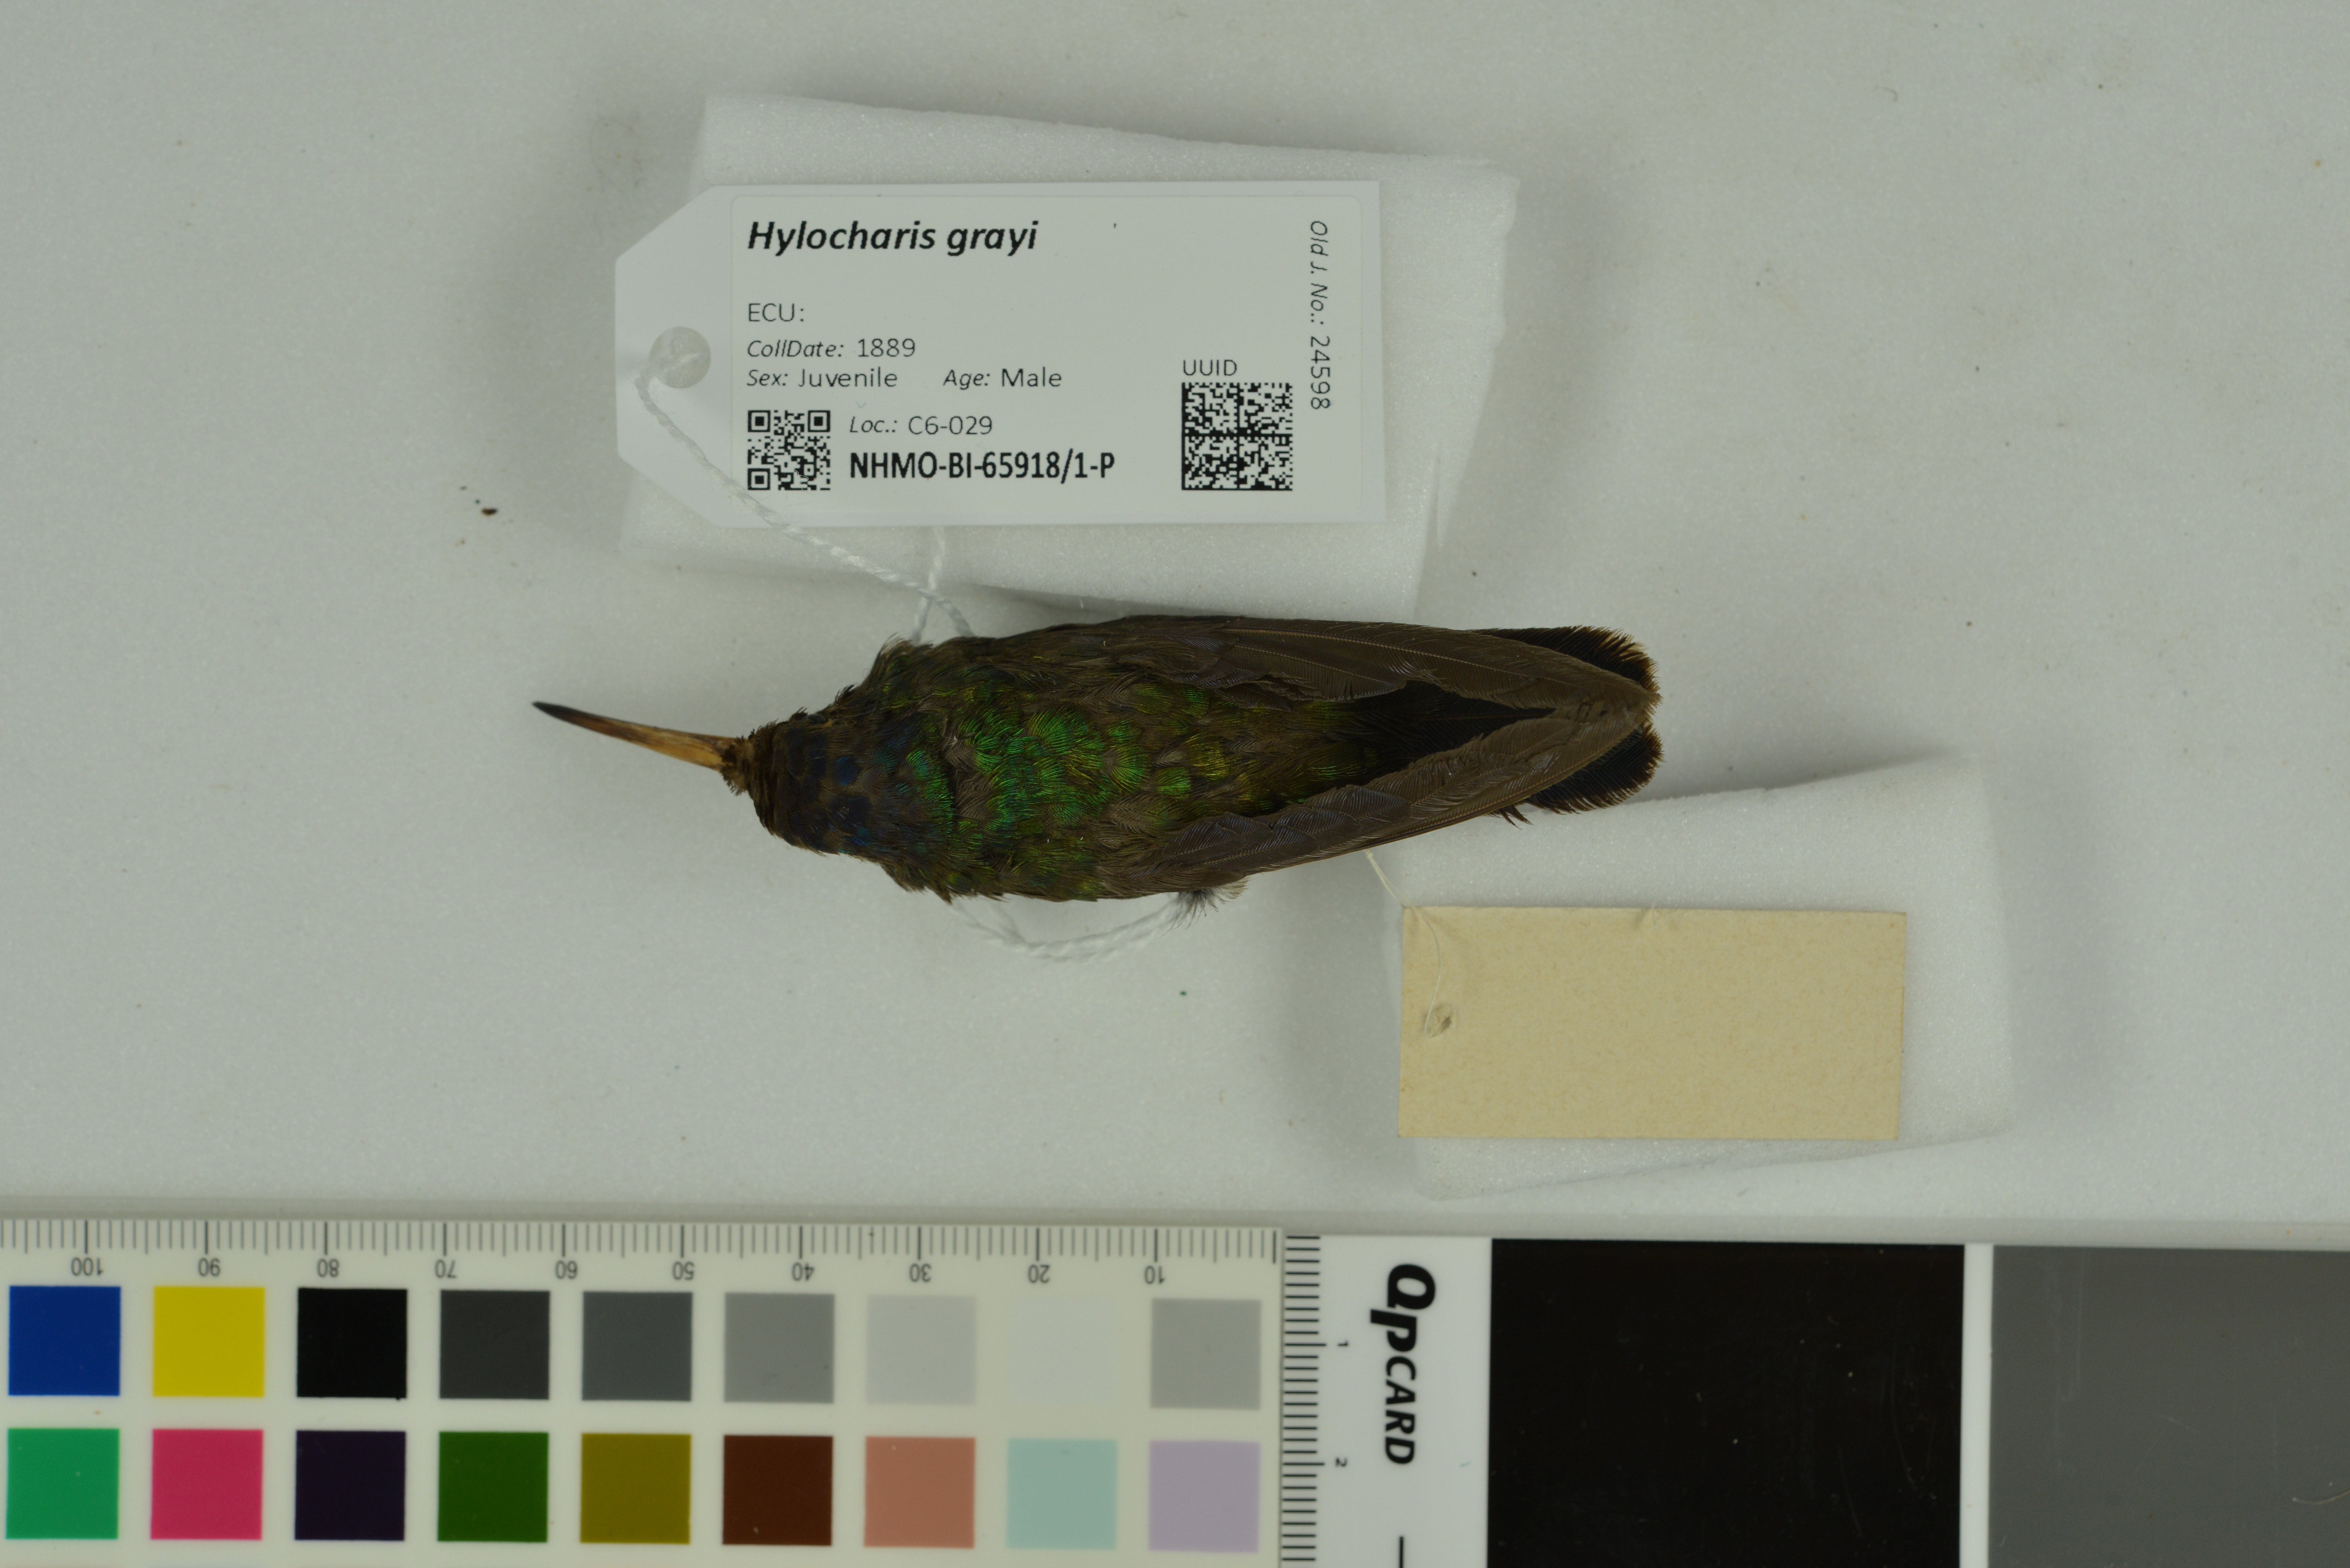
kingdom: Animalia
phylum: Chordata
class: Aves
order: Apodiformes
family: Trochilidae
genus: Chrysuronia
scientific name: Chrysuronia grayi
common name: Blue-headed sapphire
